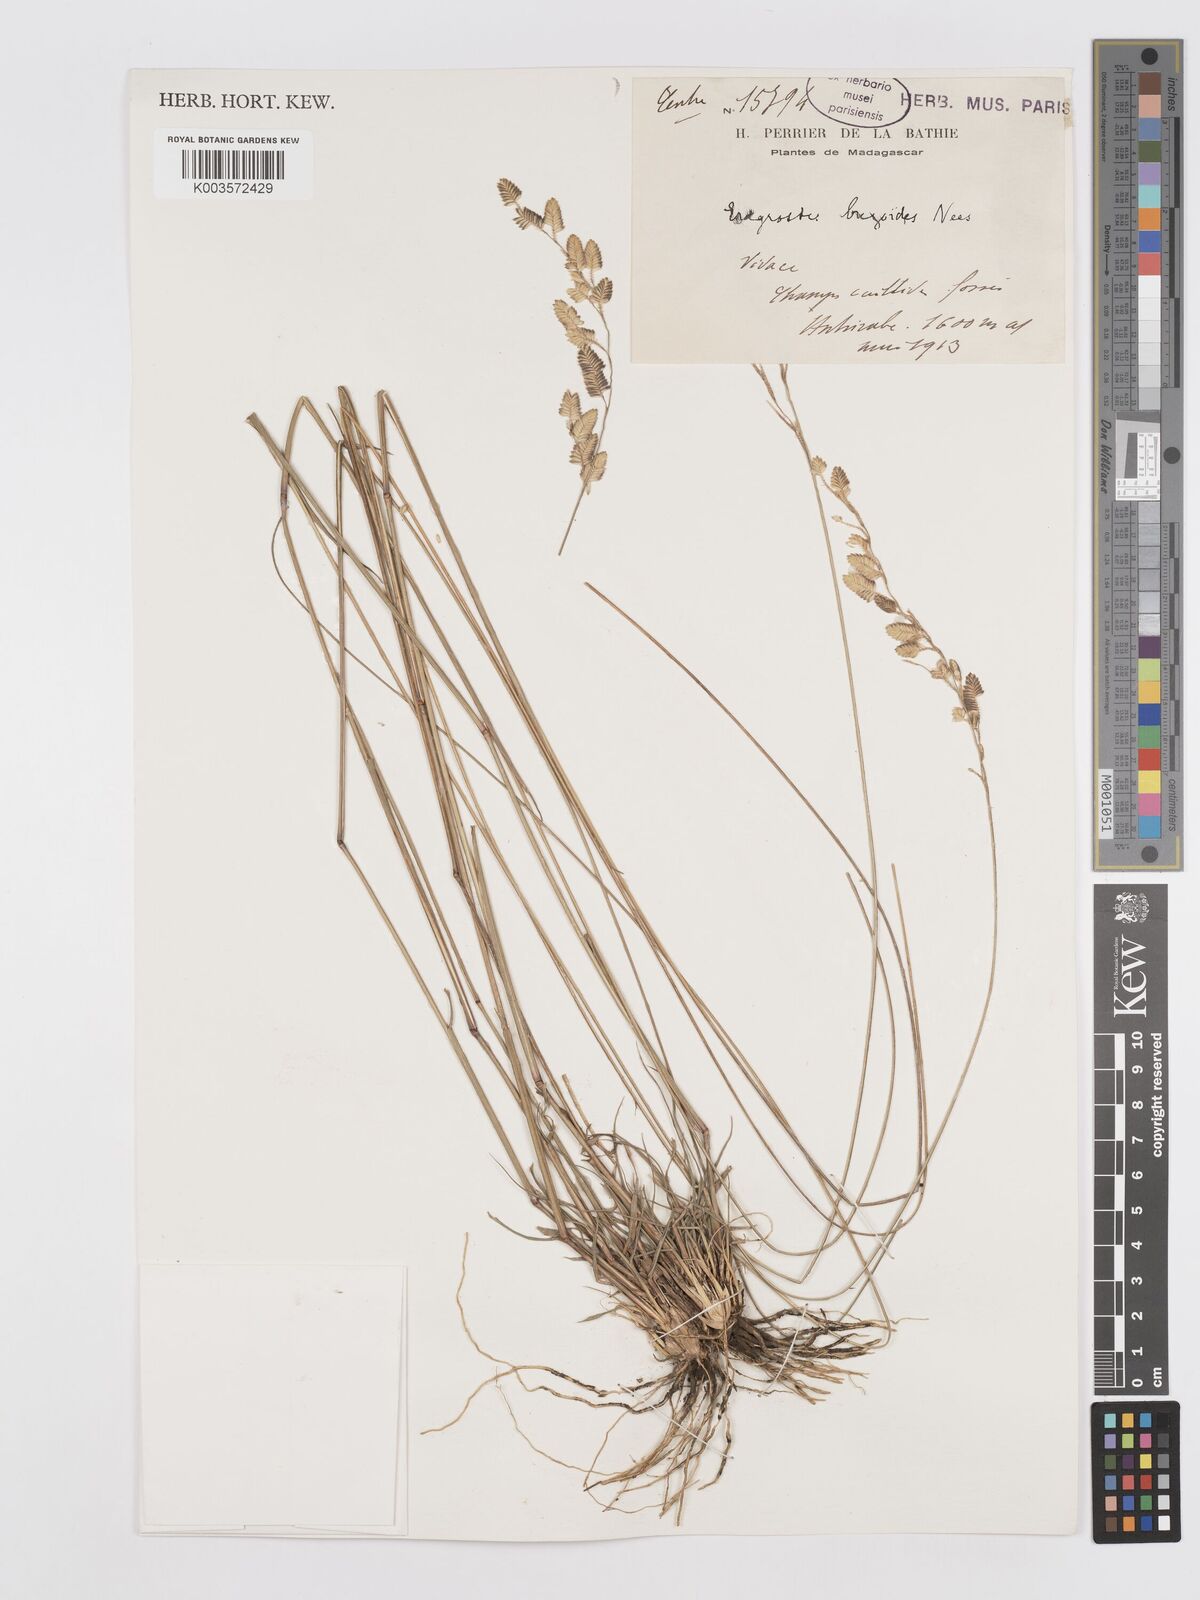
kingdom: Plantae
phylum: Tracheophyta
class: Liliopsida
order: Poales
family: Poaceae
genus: Eragrostis
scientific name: Eragrostis capensis
